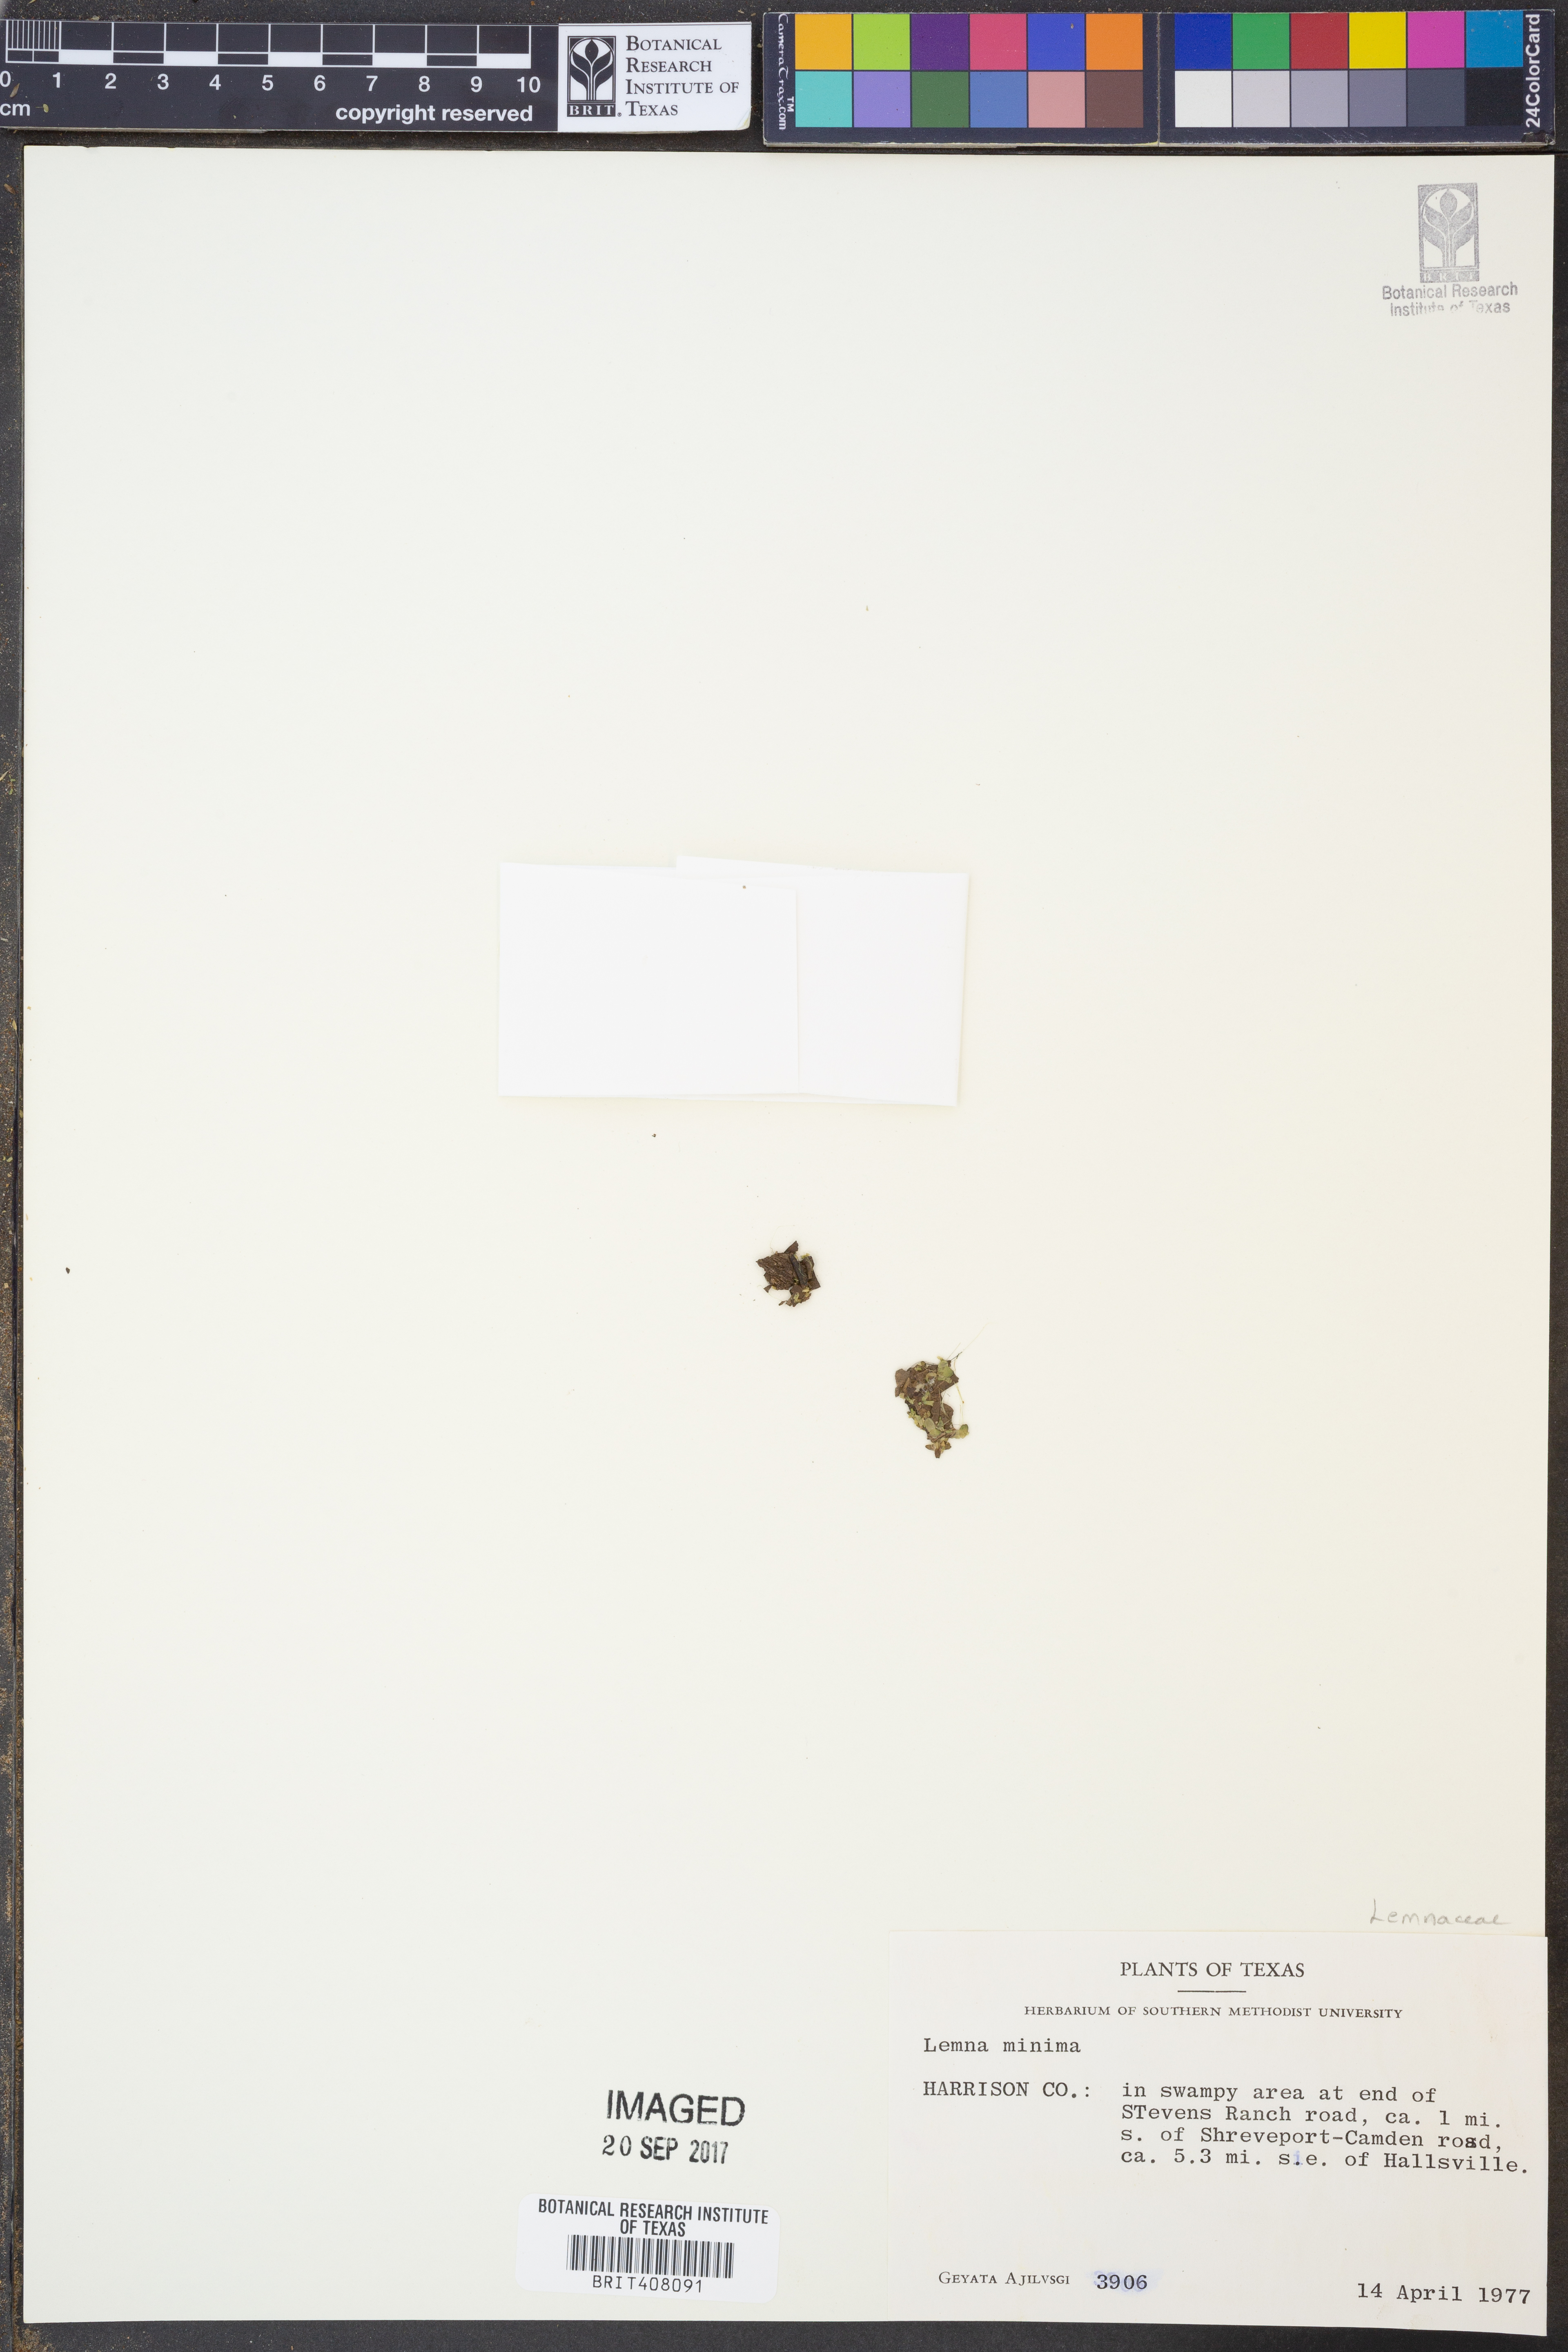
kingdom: Plantae
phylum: Tracheophyta
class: Liliopsida
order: Alismatales
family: Araceae
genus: Lemna
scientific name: Lemna minuta
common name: Least duckweed
